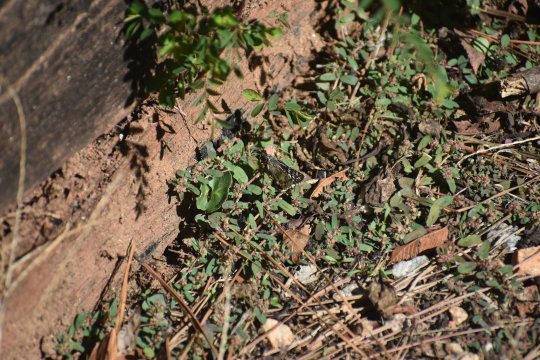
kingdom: Animalia
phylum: Arthropoda
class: Insecta
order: Lepidoptera
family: Hesperiidae
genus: Burnsius
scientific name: Burnsius
